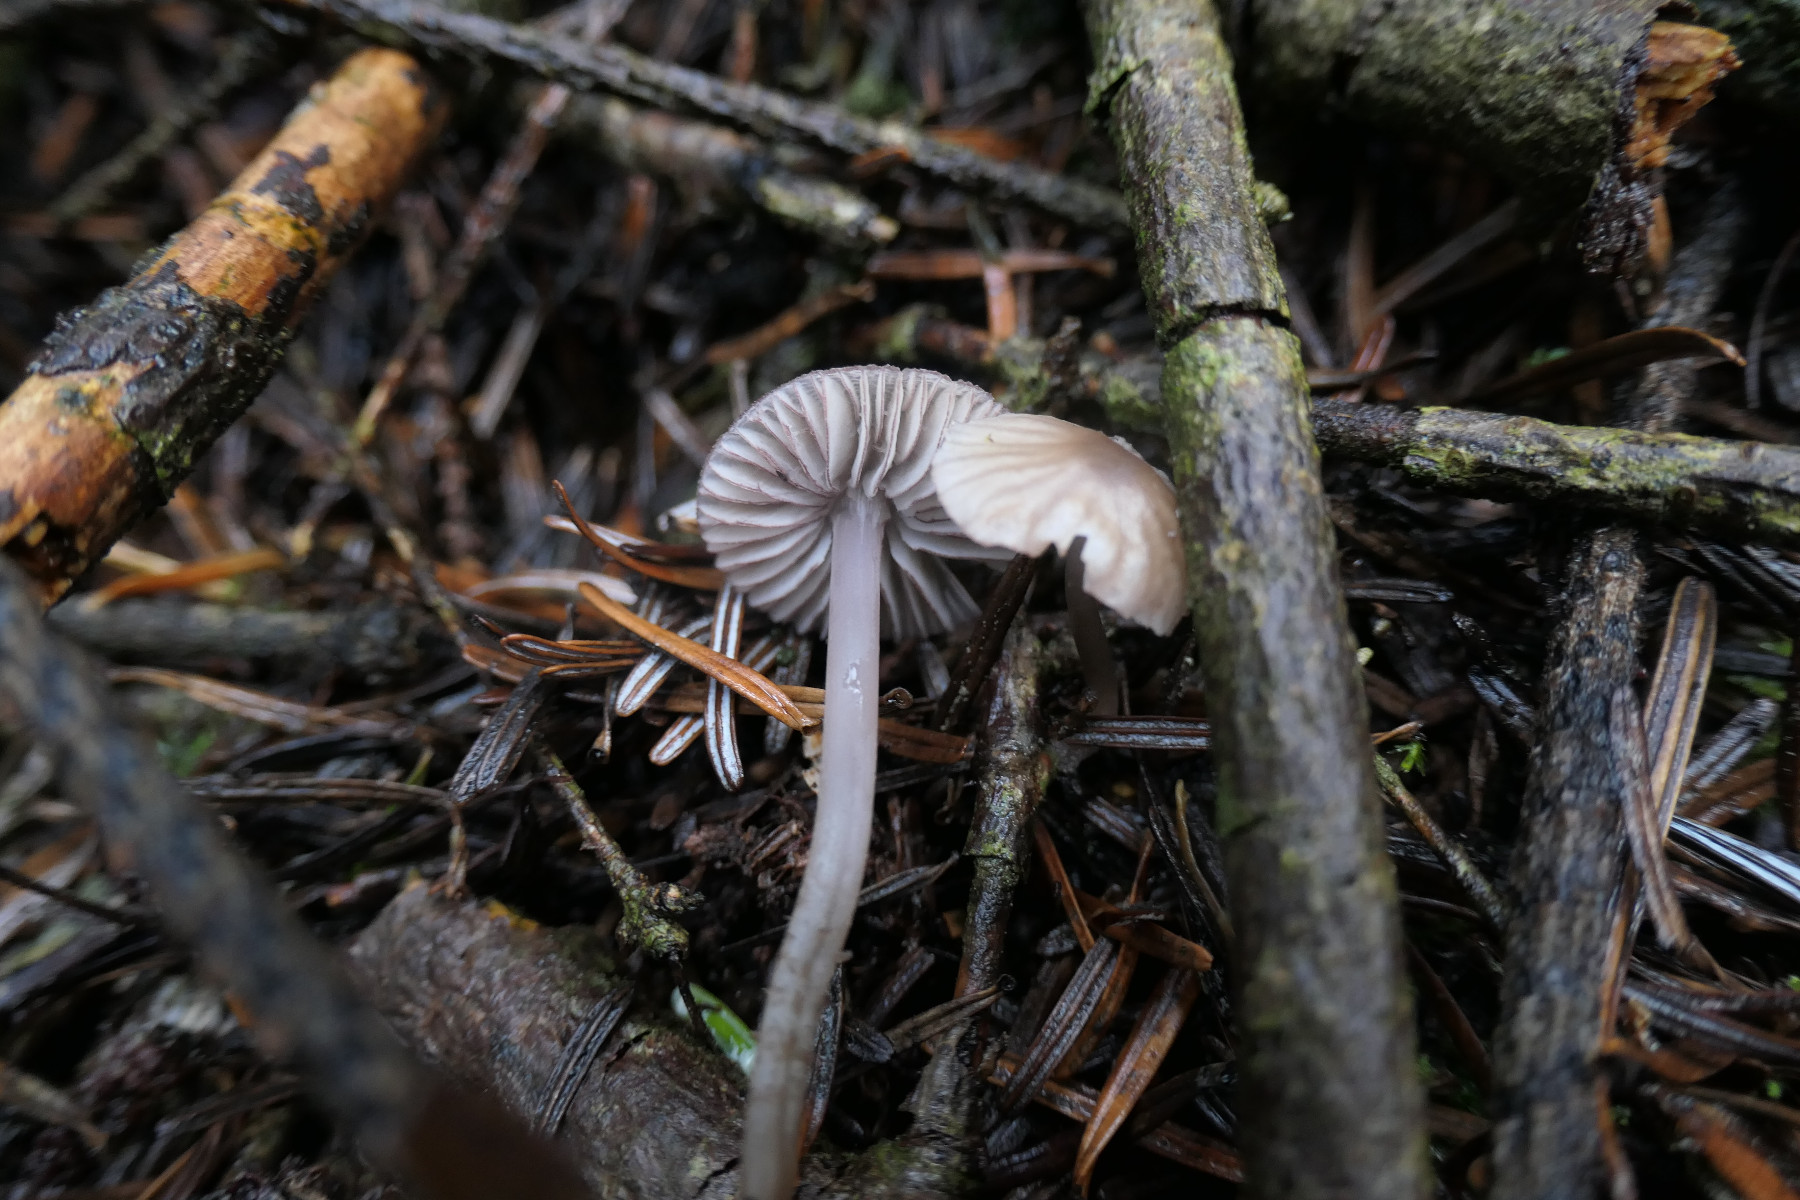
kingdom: Fungi
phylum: Basidiomycota
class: Agaricomycetes
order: Agaricales
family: Mycenaceae
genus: Mycena
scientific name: Mycena rubromarginata
